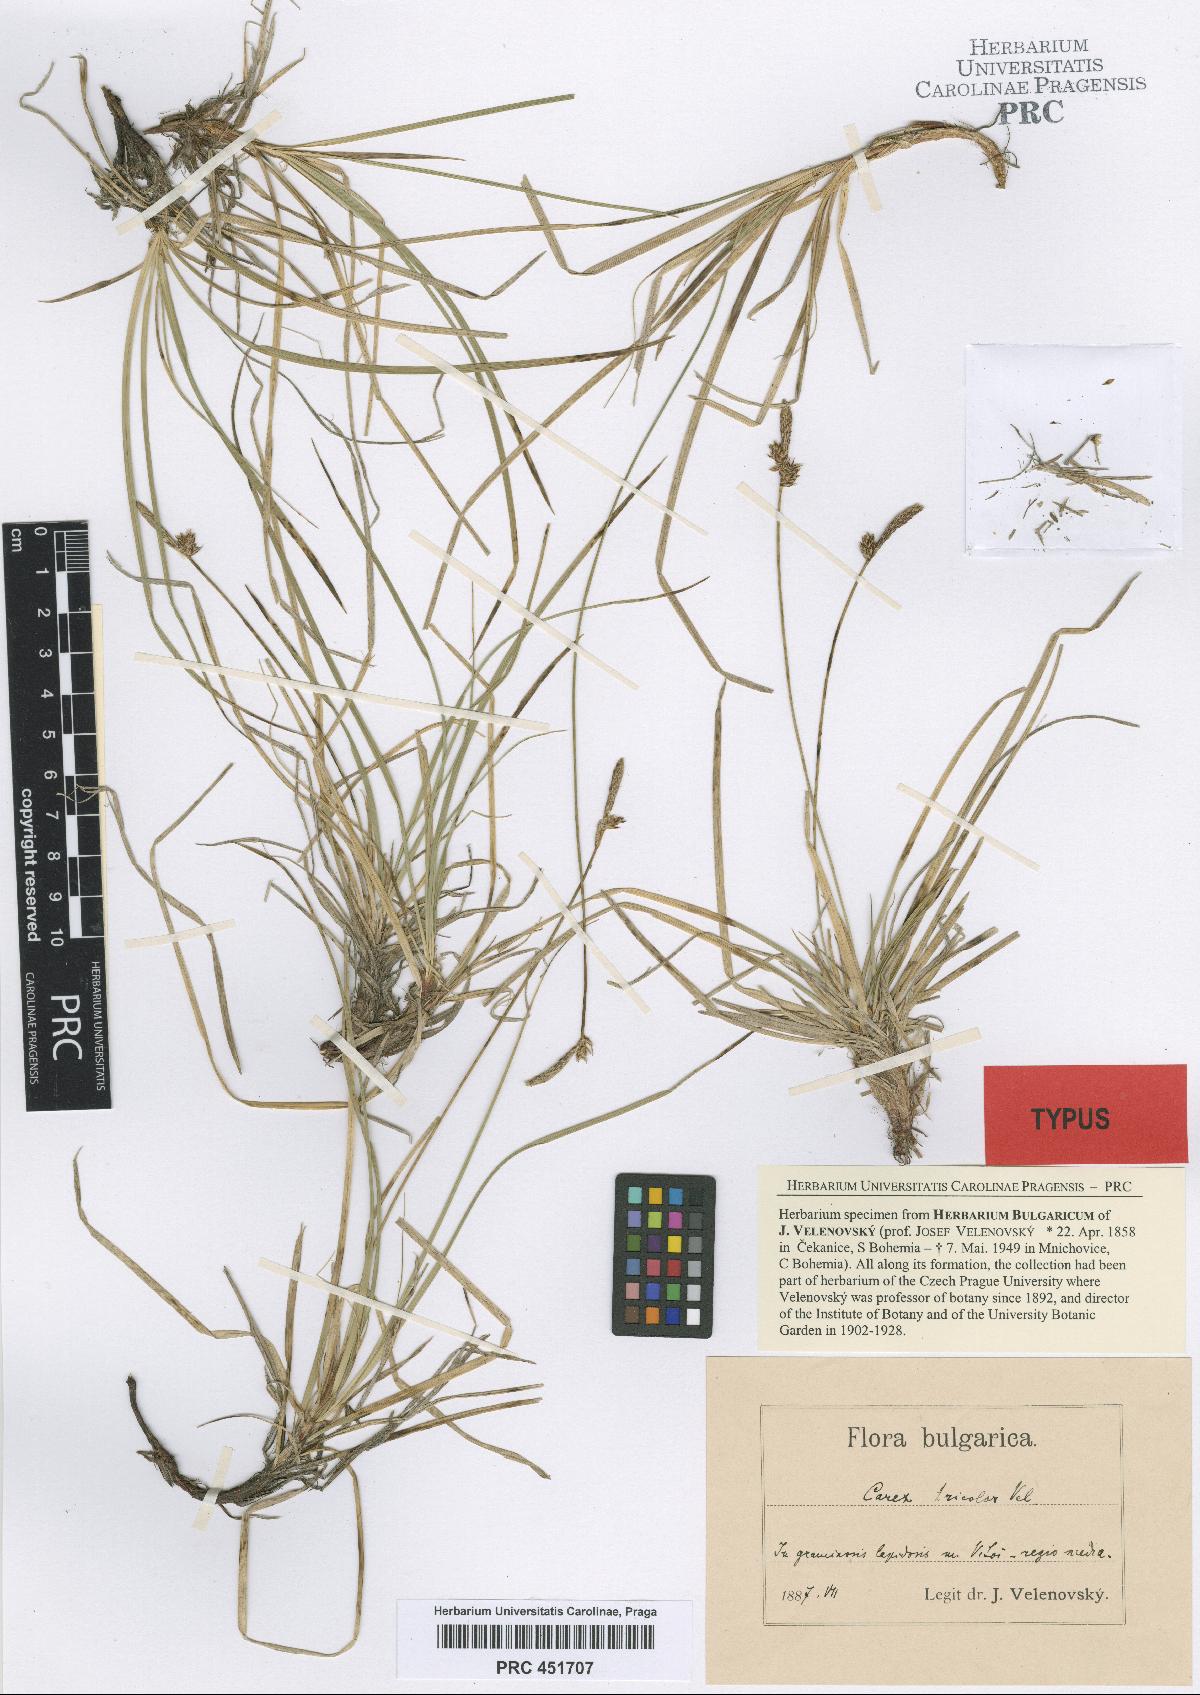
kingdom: Plantae
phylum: Tracheophyta
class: Liliopsida
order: Poales
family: Cyperaceae
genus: Carex
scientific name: Carex tricolor
